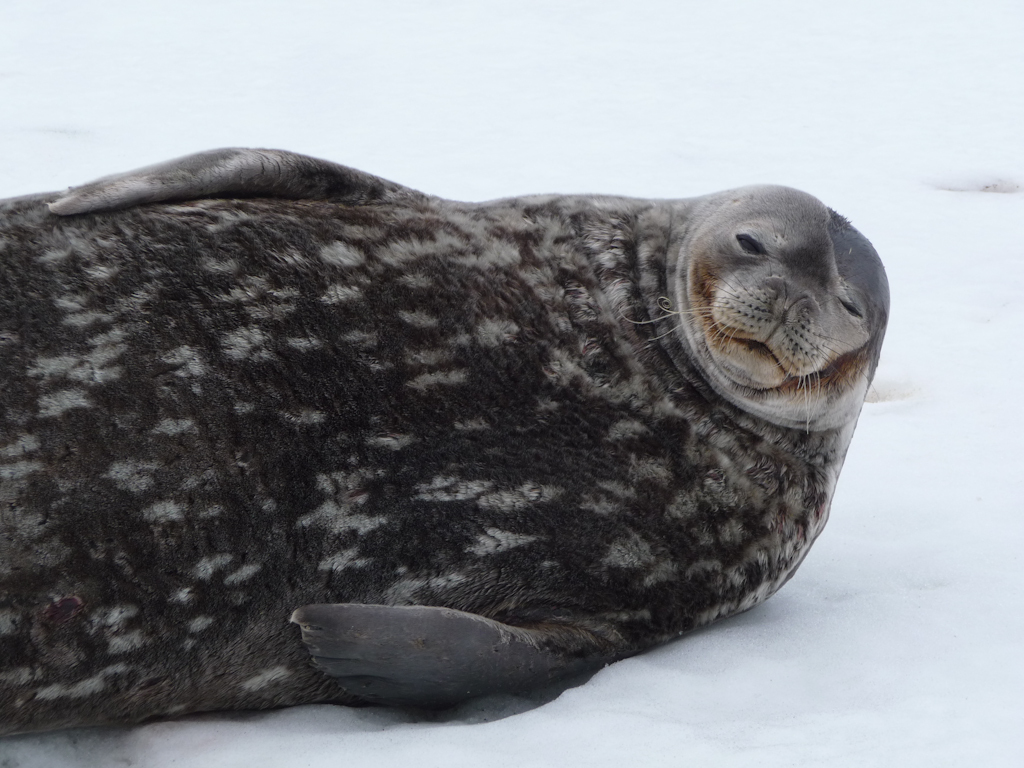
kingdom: Animalia
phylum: Chordata
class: Mammalia
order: Carnivora
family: Phocidae
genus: Leptonychotes
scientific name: Leptonychotes weddellii
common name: Weddell Seal
